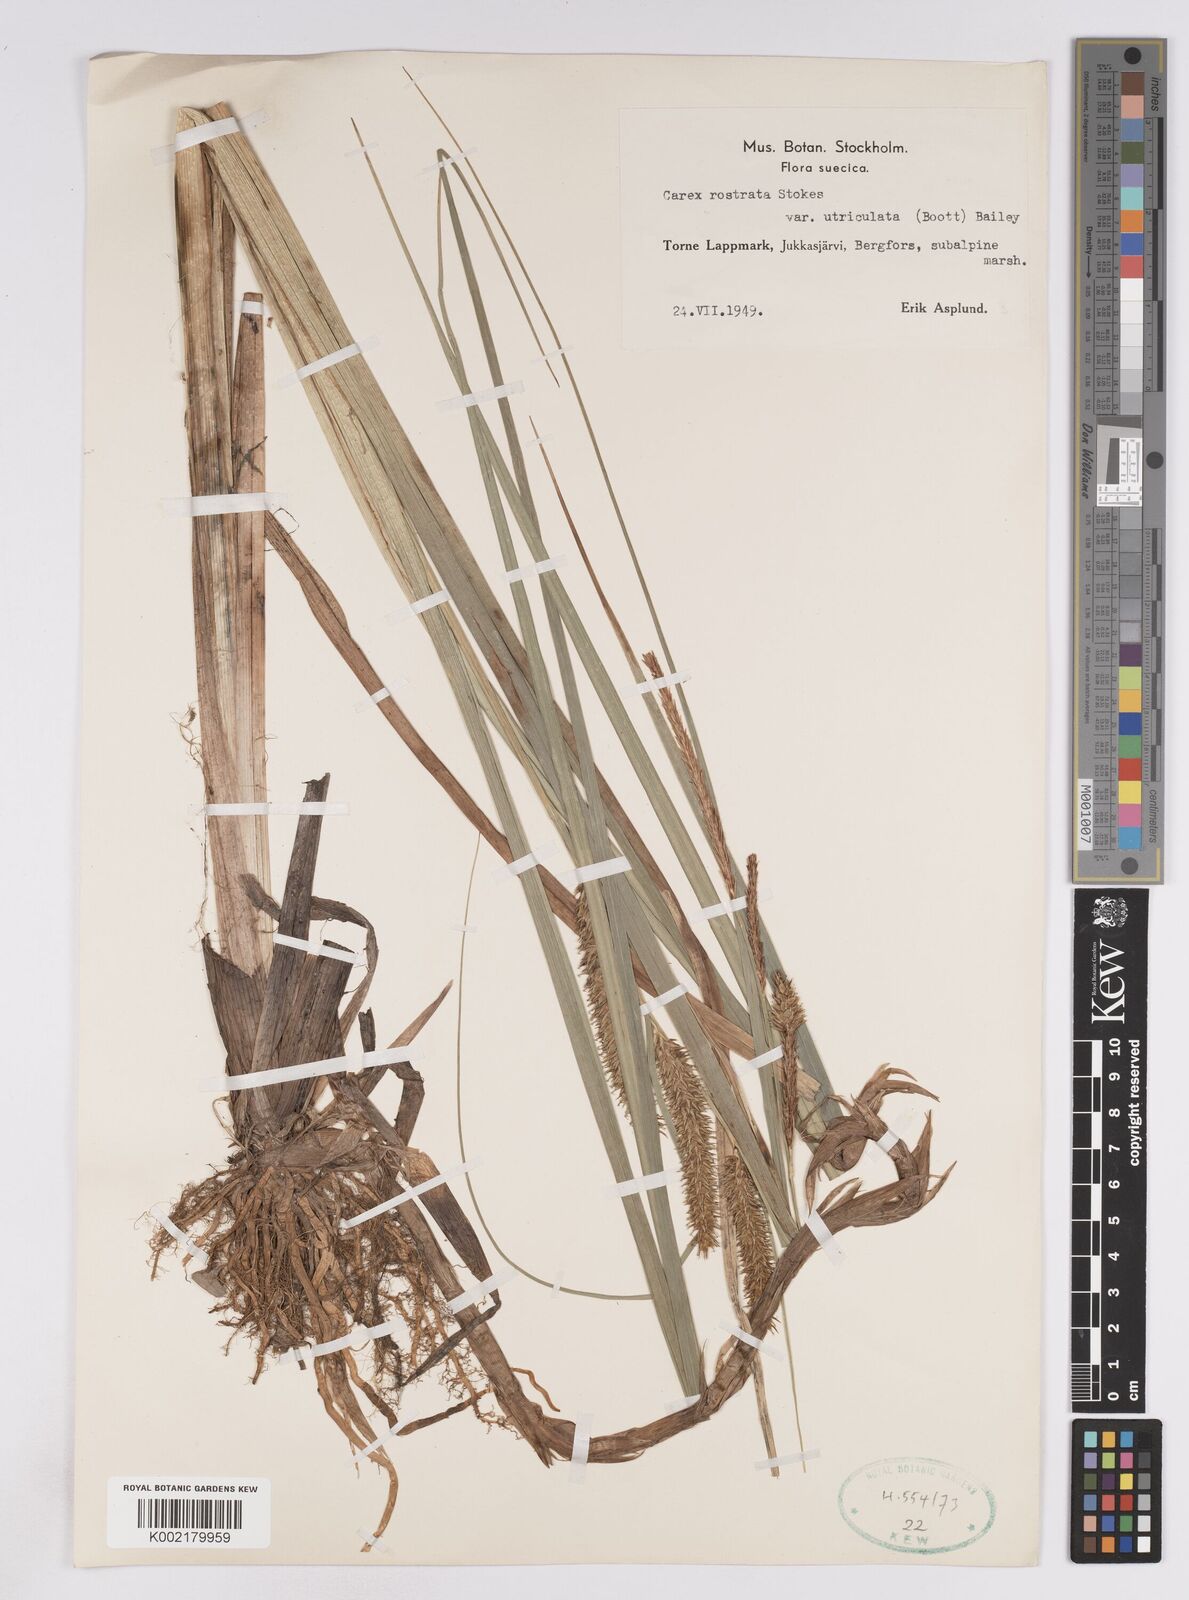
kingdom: Plantae
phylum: Tracheophyta
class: Liliopsida
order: Poales
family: Cyperaceae
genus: Carex
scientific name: Carex utriculata
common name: Beaked sedge
